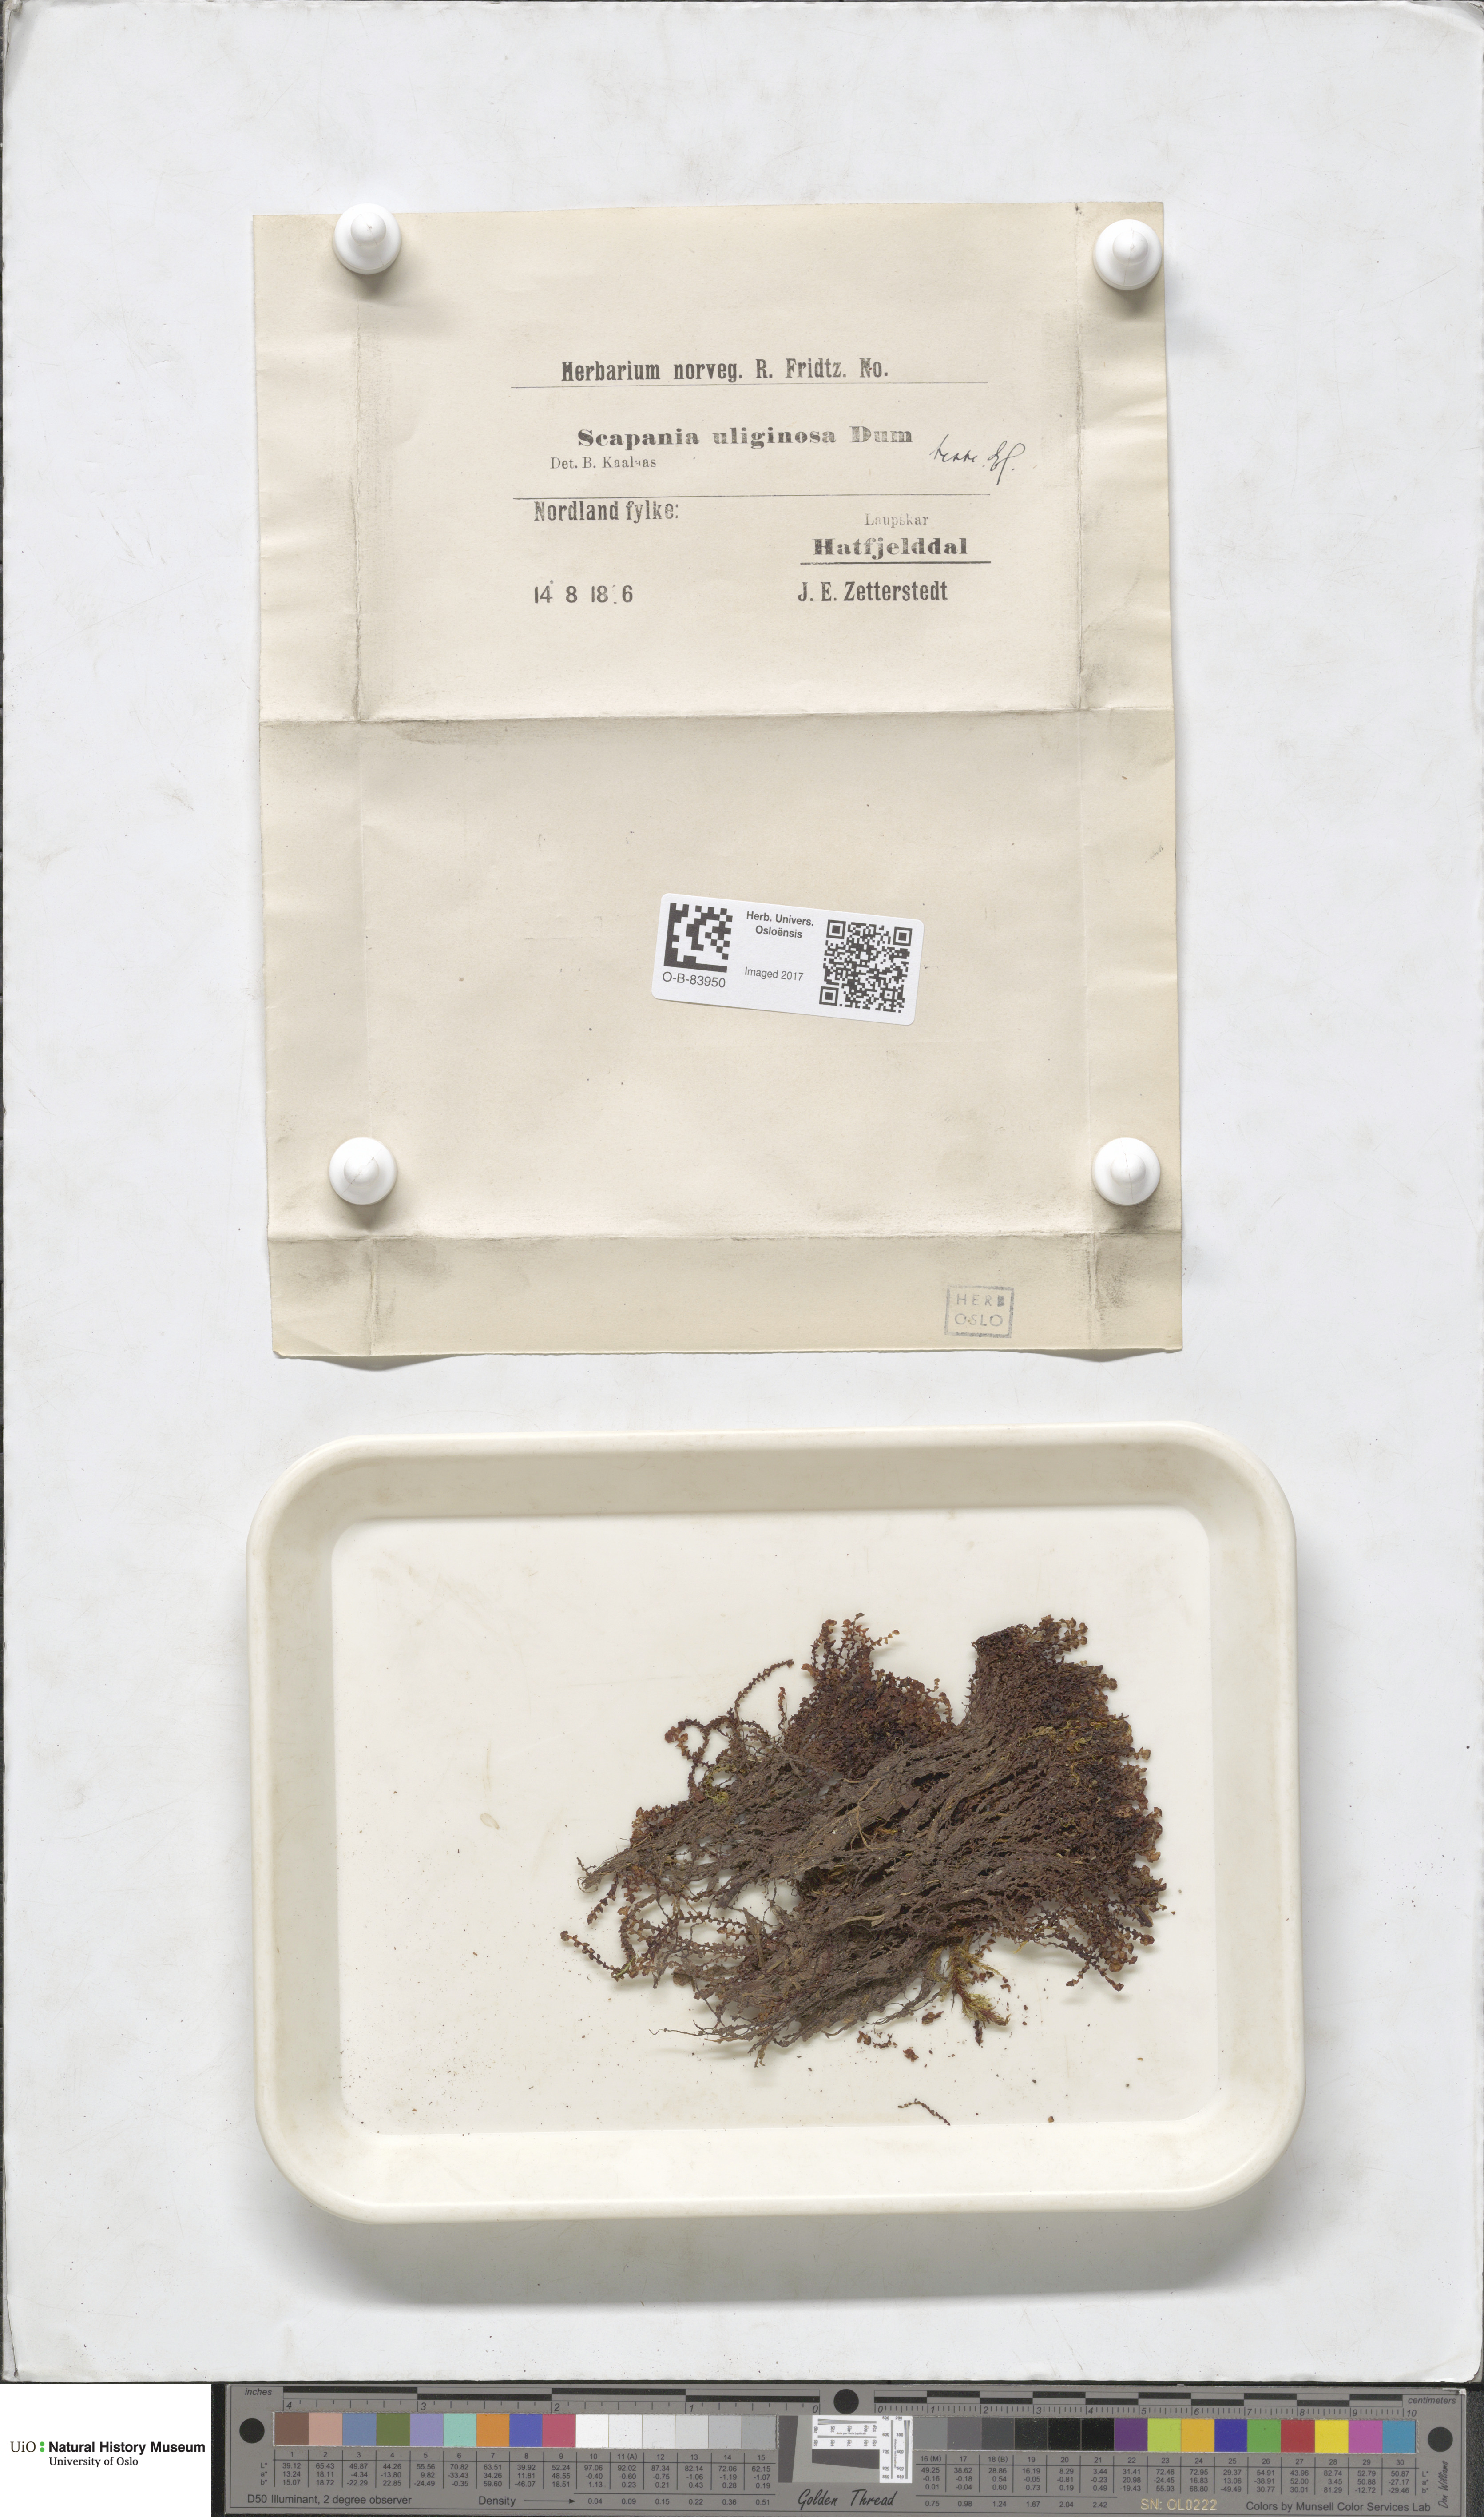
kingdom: Plantae
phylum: Marchantiophyta
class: Jungermanniopsida
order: Jungermanniales
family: Scapaniaceae
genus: Scapania
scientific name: Scapania uliginosa
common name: Marsh earwort
